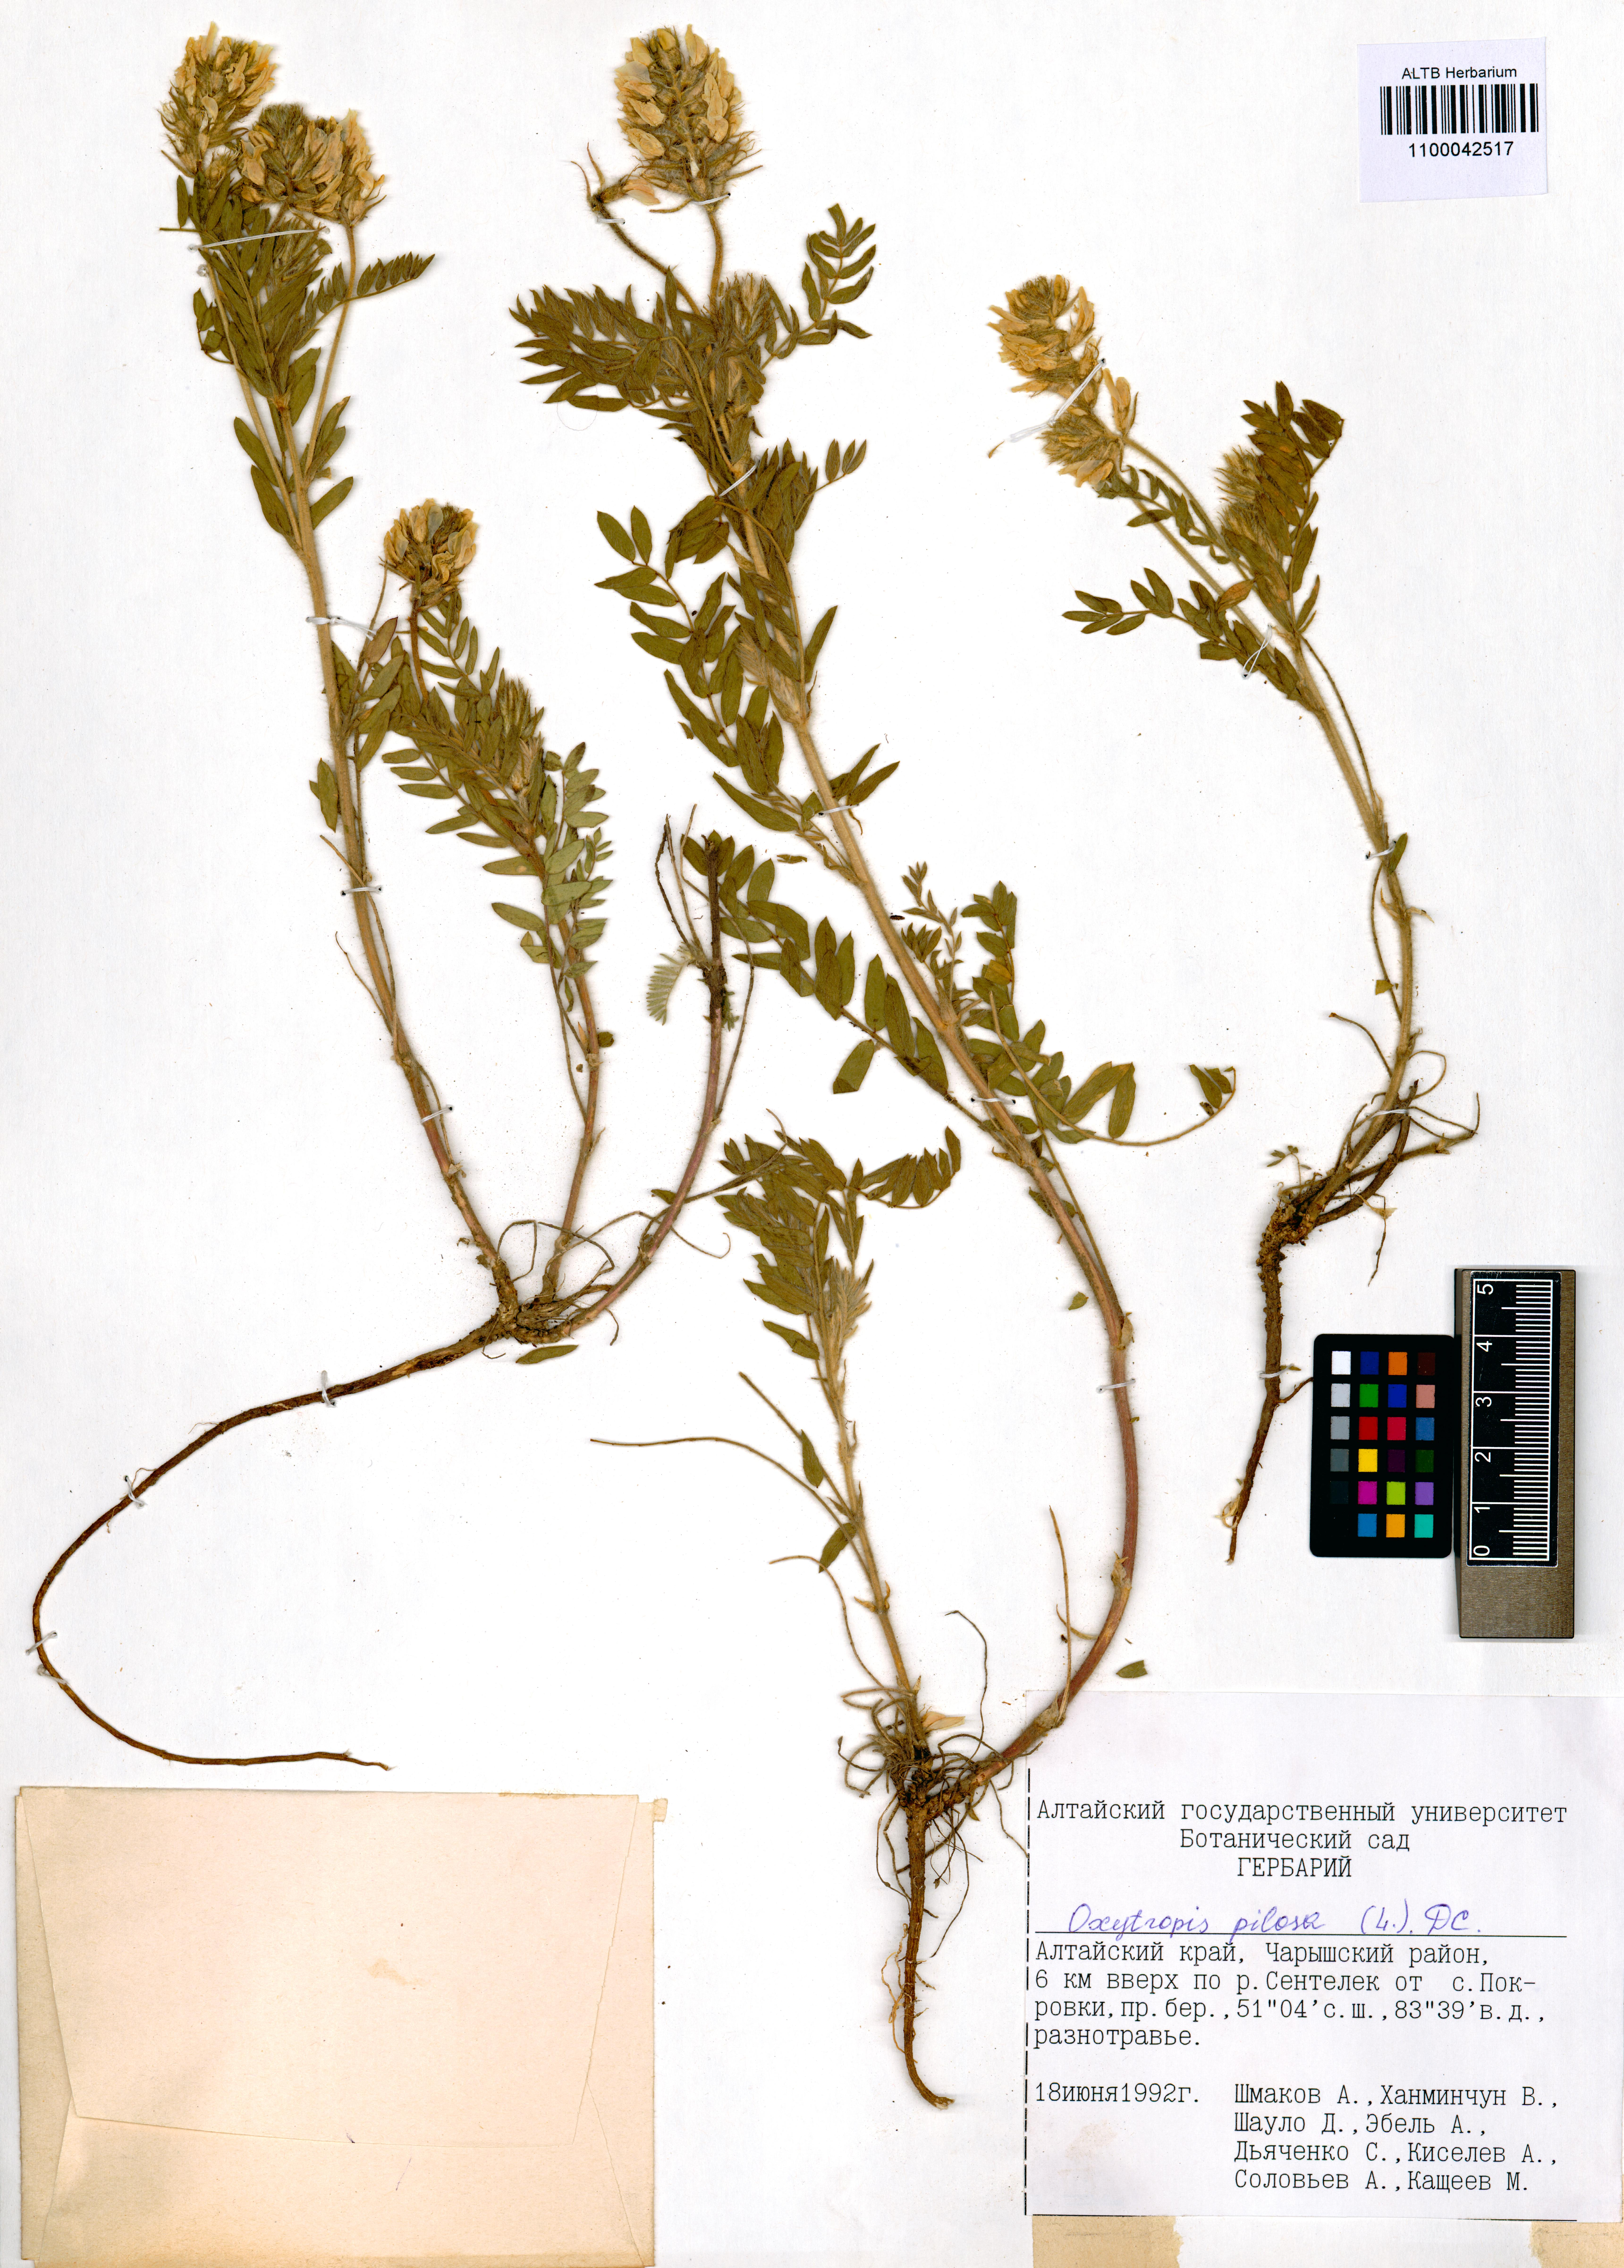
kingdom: Plantae
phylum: Tracheophyta
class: Magnoliopsida
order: Fabales
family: Fabaceae
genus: Oxytropis
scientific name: Oxytropis pilosa
